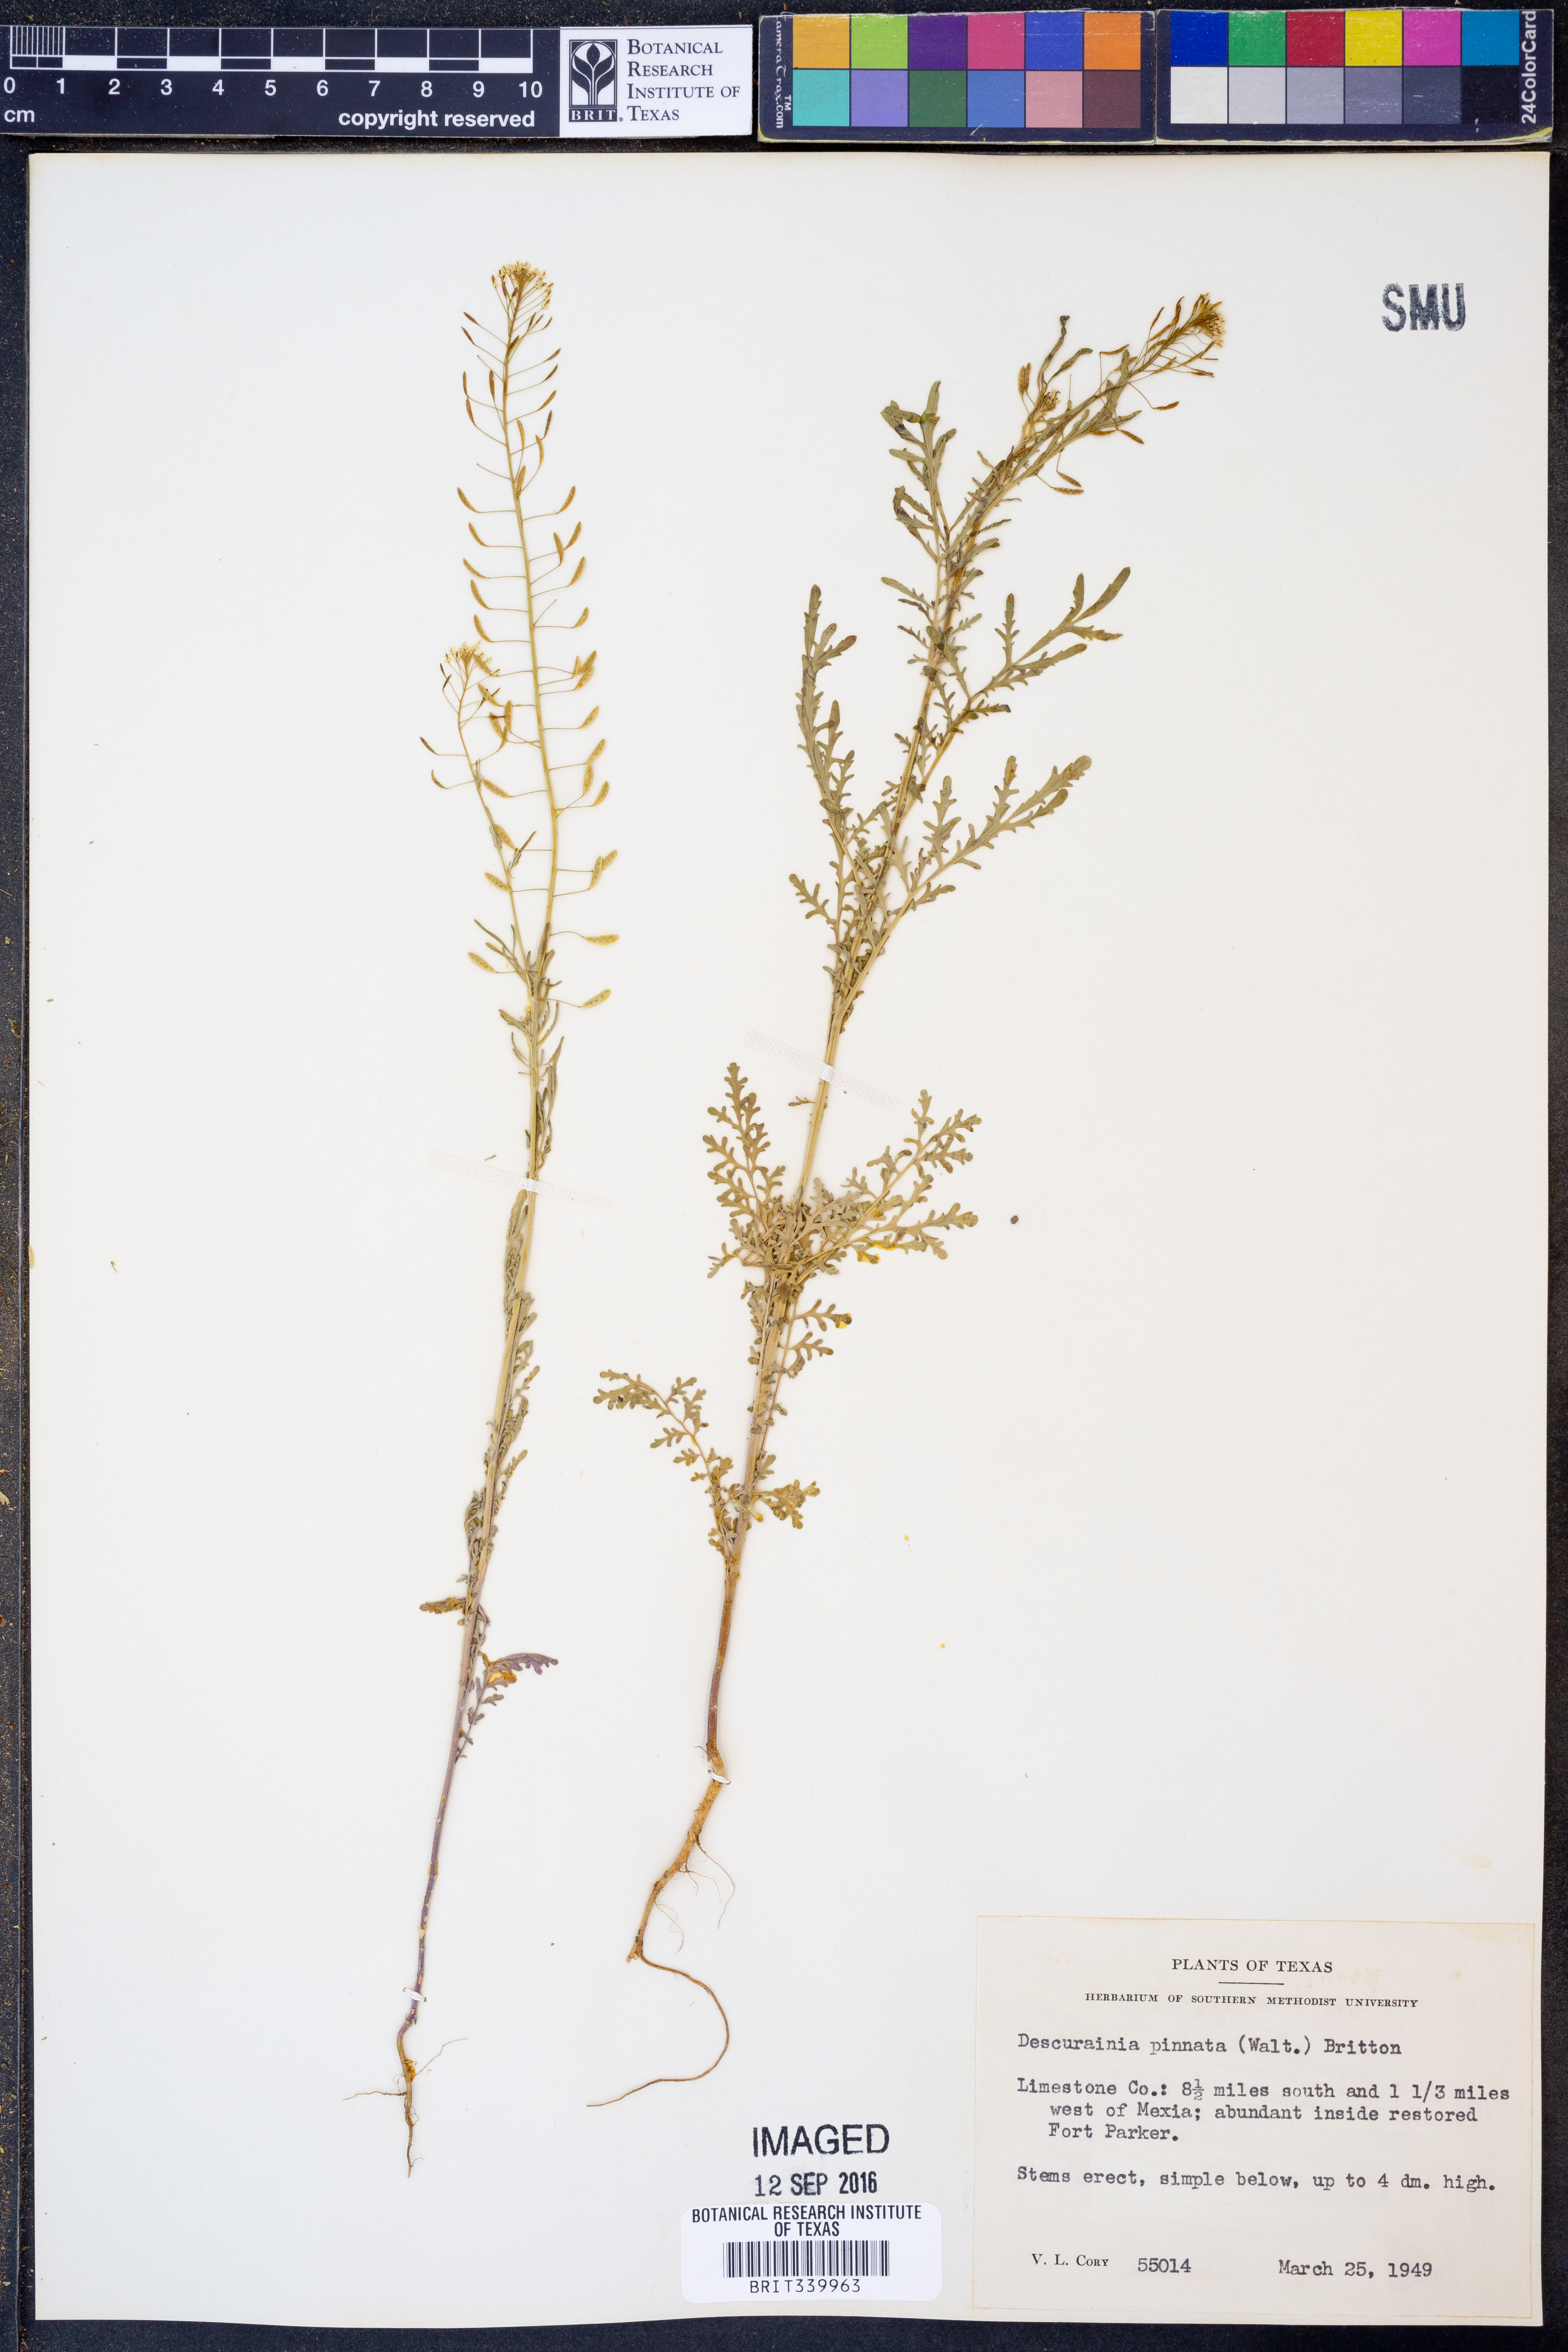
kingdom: Plantae
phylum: Tracheophyta
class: Magnoliopsida
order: Brassicales
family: Brassicaceae
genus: Descurainia
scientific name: Descurainia pinnata
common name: Western tansy mustard
